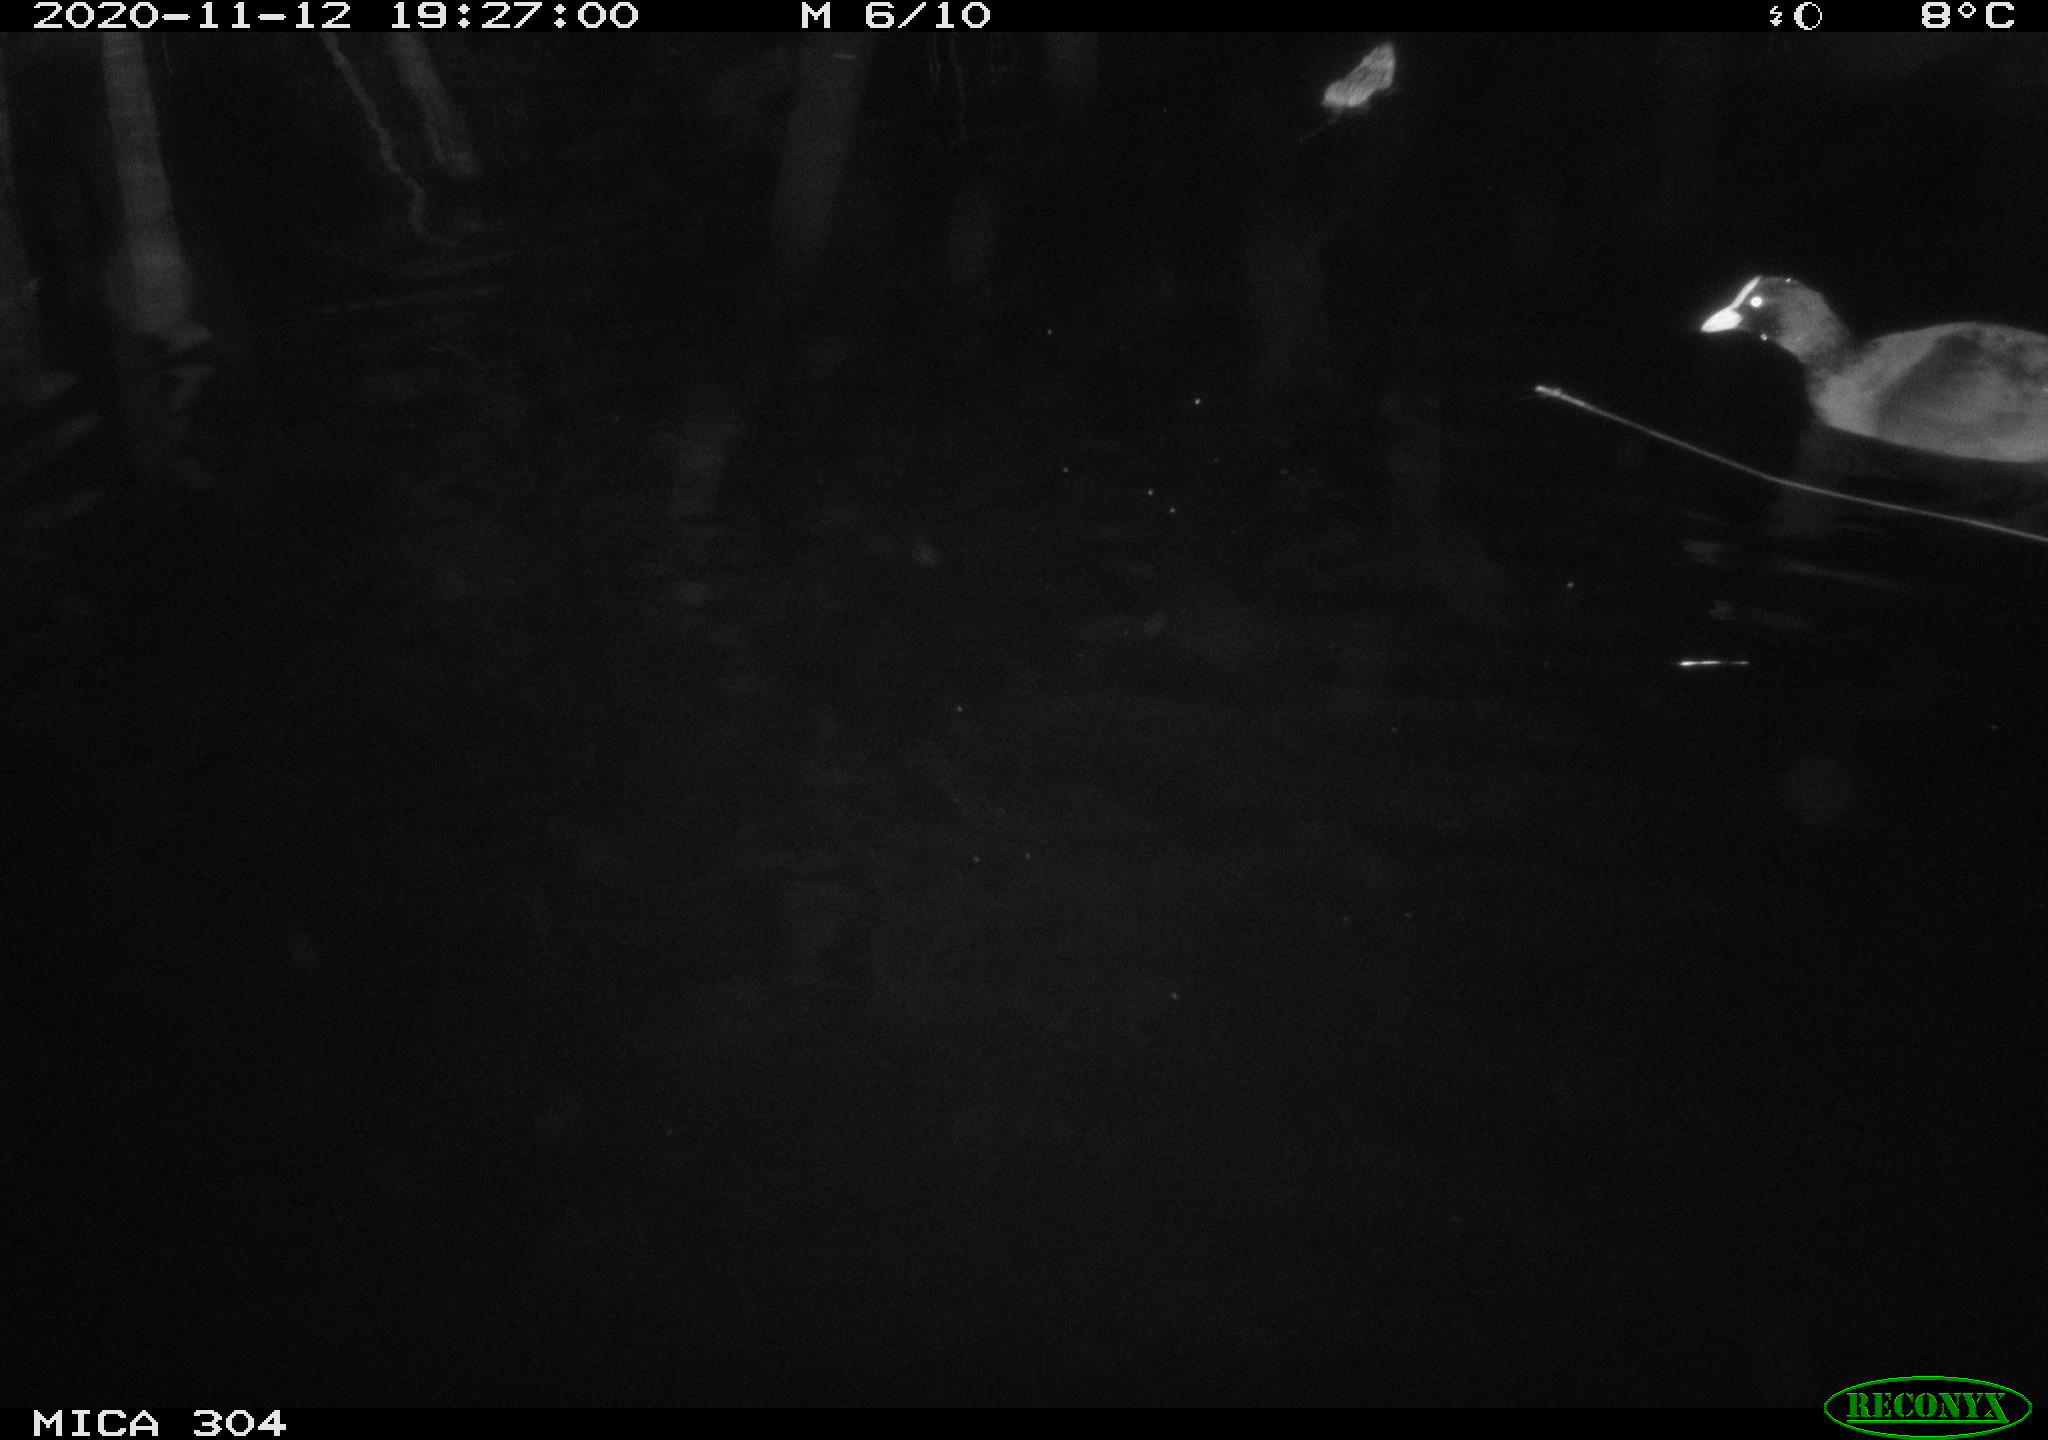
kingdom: Animalia
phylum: Chordata
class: Aves
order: Gruiformes
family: Rallidae
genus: Fulica
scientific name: Fulica atra
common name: Eurasian coot
